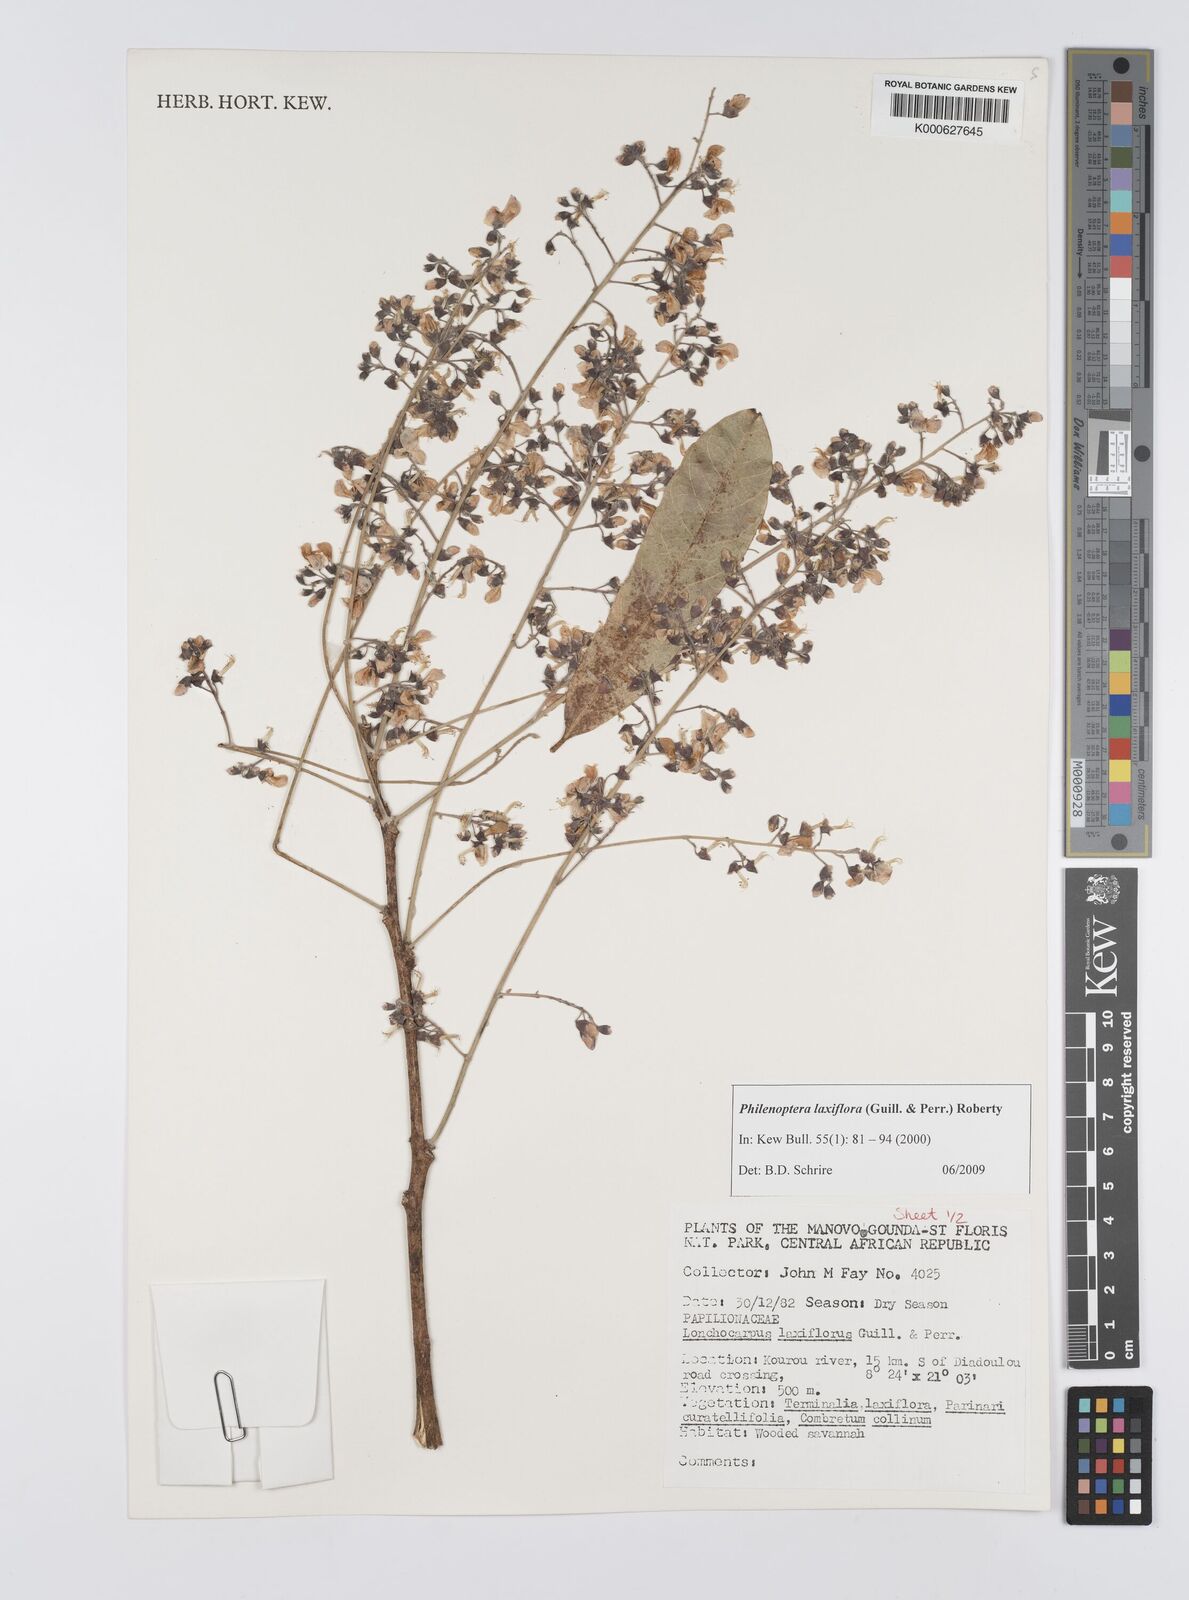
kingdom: Plantae
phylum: Tracheophyta
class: Magnoliopsida
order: Fabales
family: Fabaceae
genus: Philenoptera
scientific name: Philenoptera laxiflora
